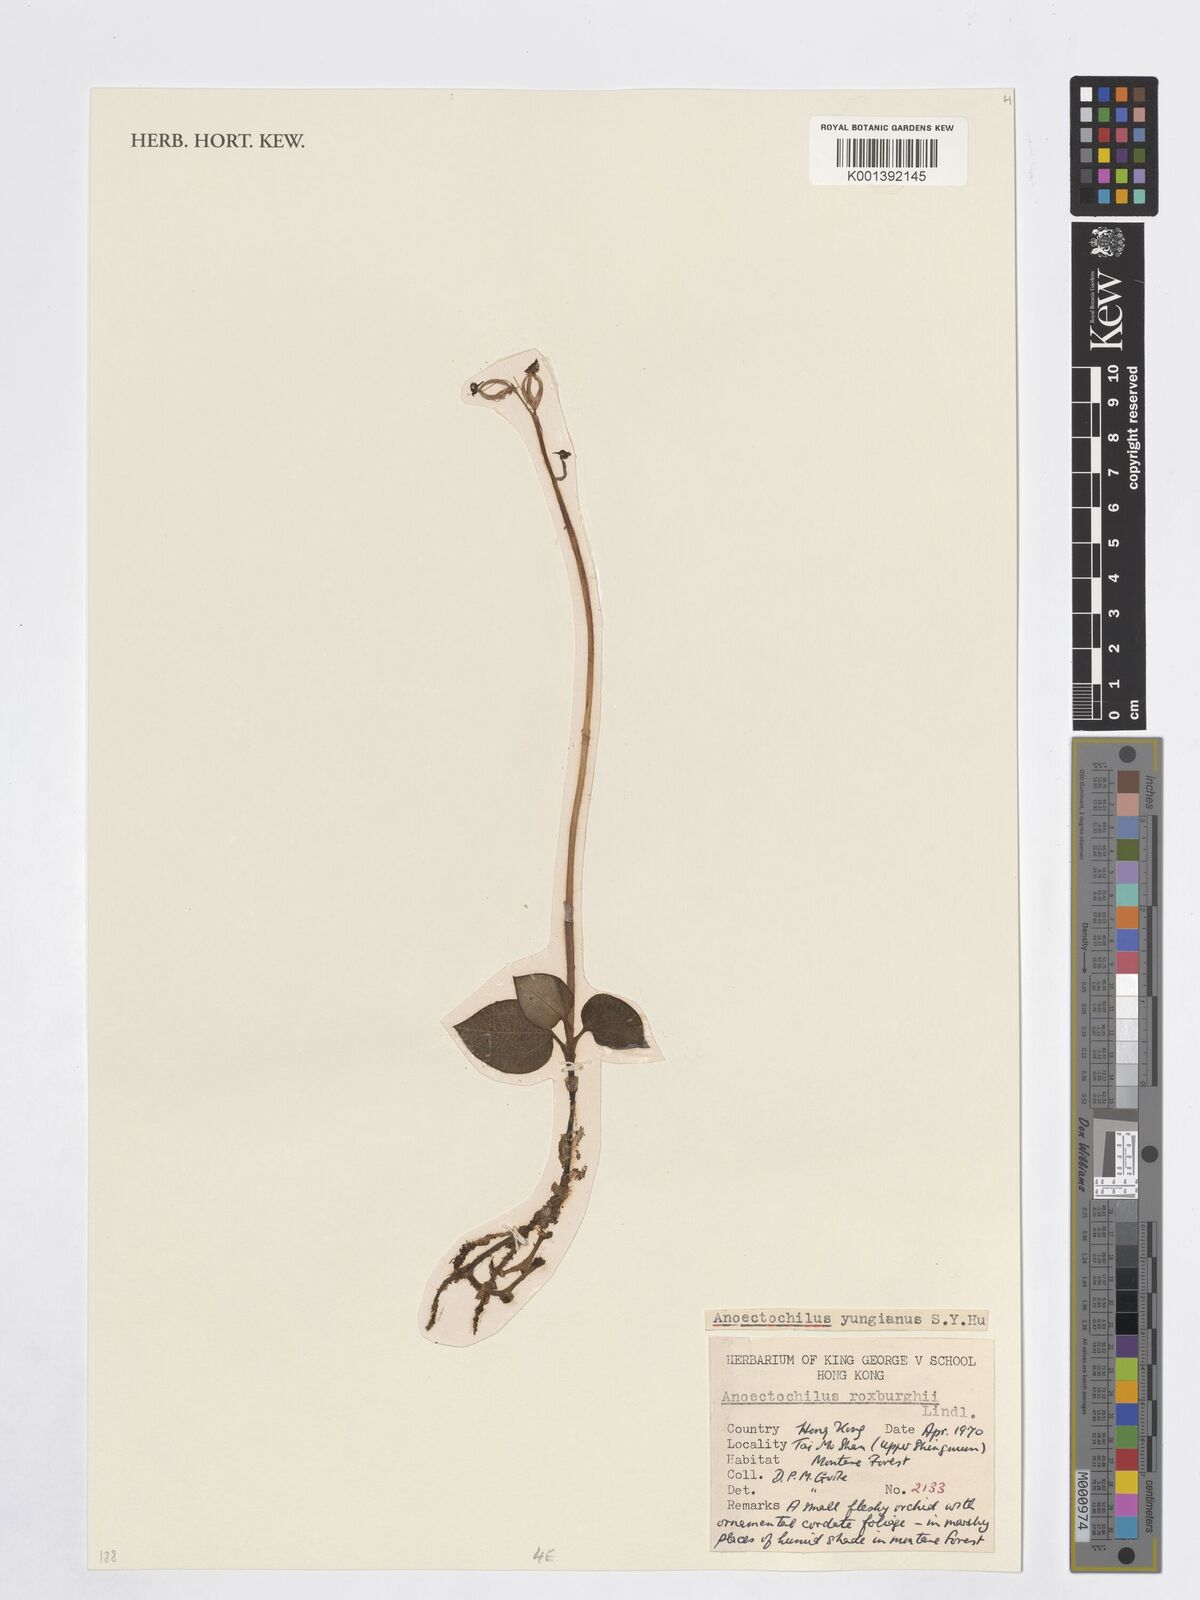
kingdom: Plantae
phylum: Tracheophyta
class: Liliopsida
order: Asparagales
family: Orchidaceae
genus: Anoectochilus
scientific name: Anoectochilus roxburghii
